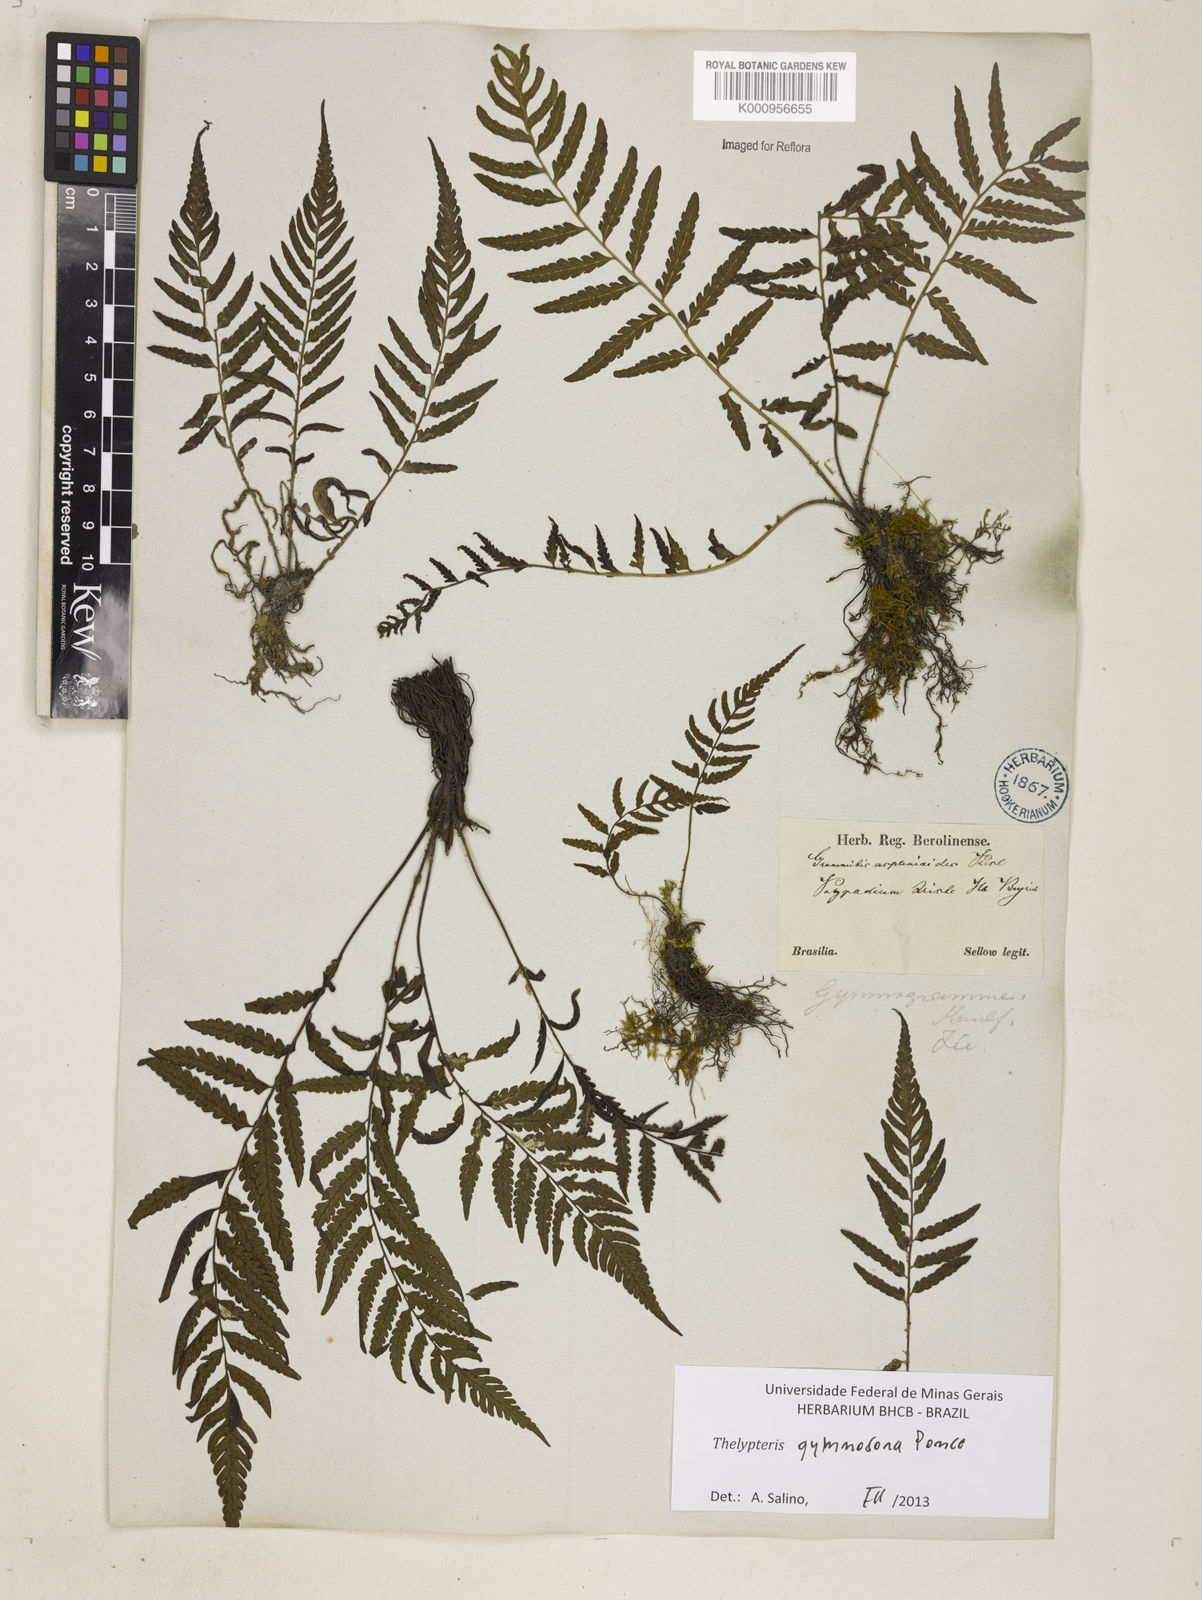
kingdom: Plantae
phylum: Tracheophyta
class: Polypodiopsida
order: Polypodiales
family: Thelypteridaceae
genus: Amauropelta
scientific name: Amauropelta
